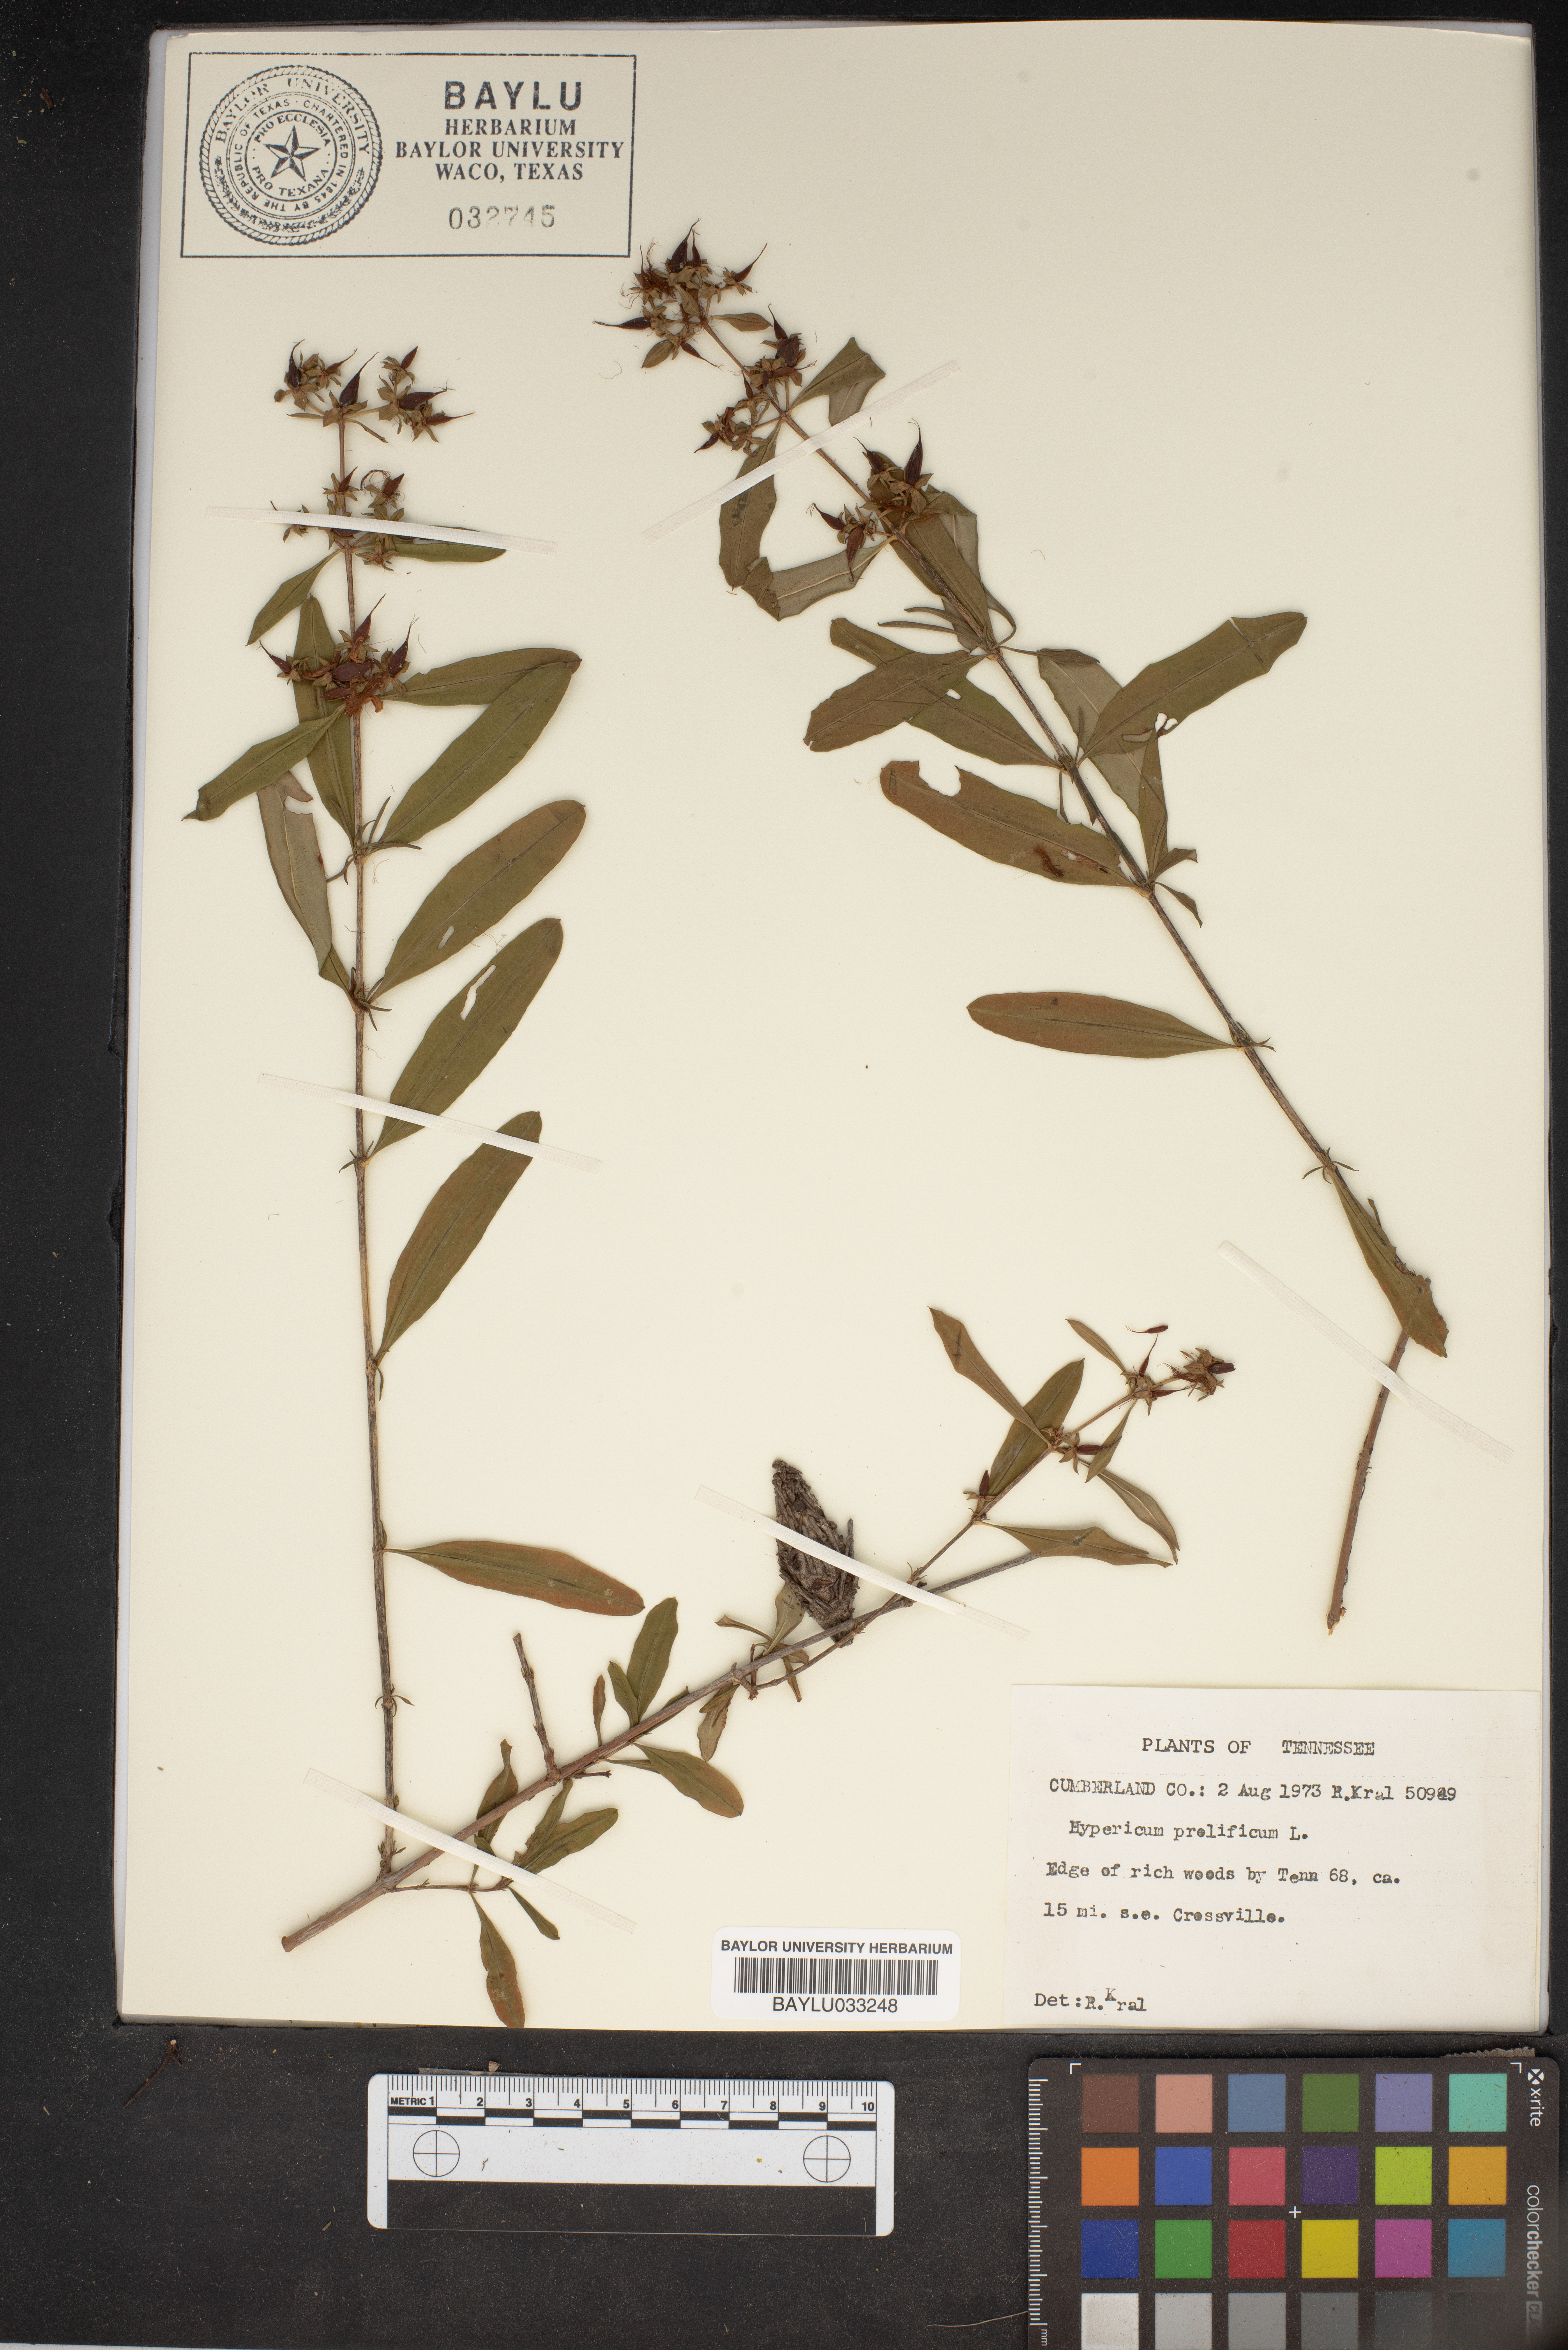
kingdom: Plantae
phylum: Tracheophyta
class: Magnoliopsida
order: Malpighiales
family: Hypericaceae
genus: Hypericum
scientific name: Hypericum prolificum
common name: Shrubby st. john's-wort
